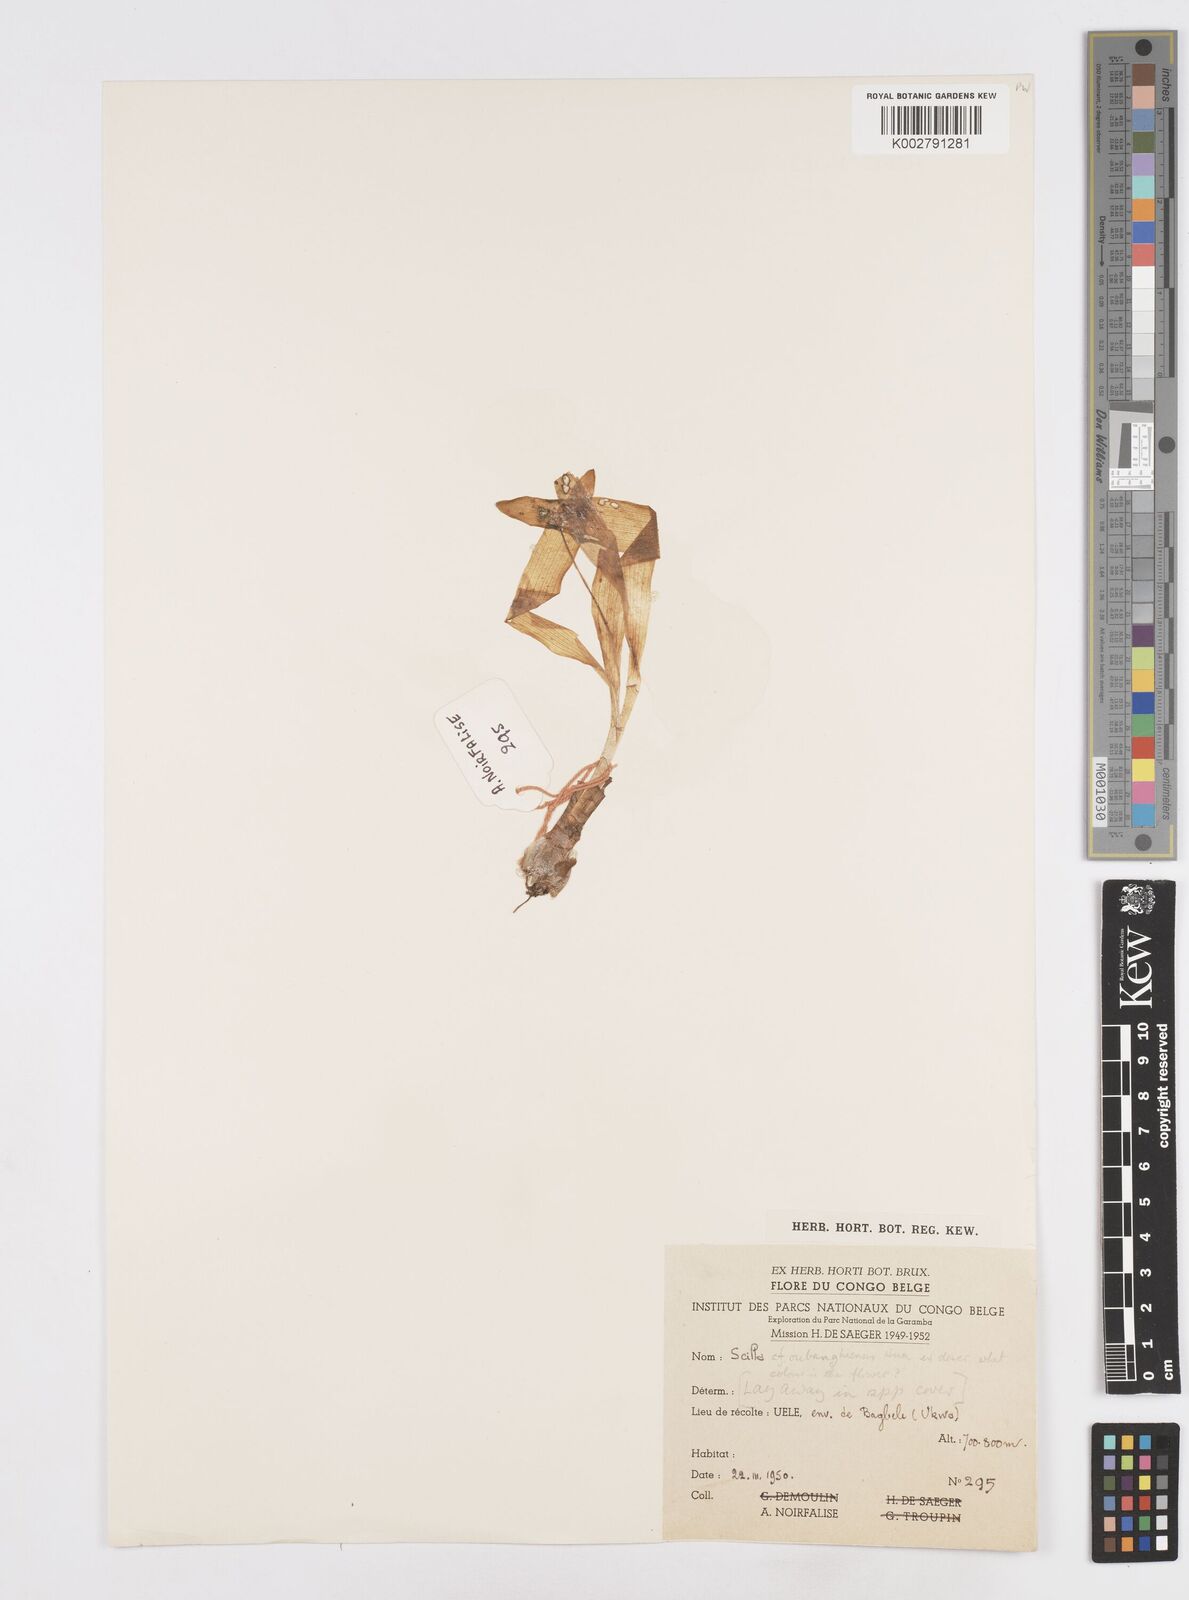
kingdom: Plantae
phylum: Tracheophyta
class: Liliopsida
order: Asparagales
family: Asparagaceae
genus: Scilla
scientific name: Scilla
